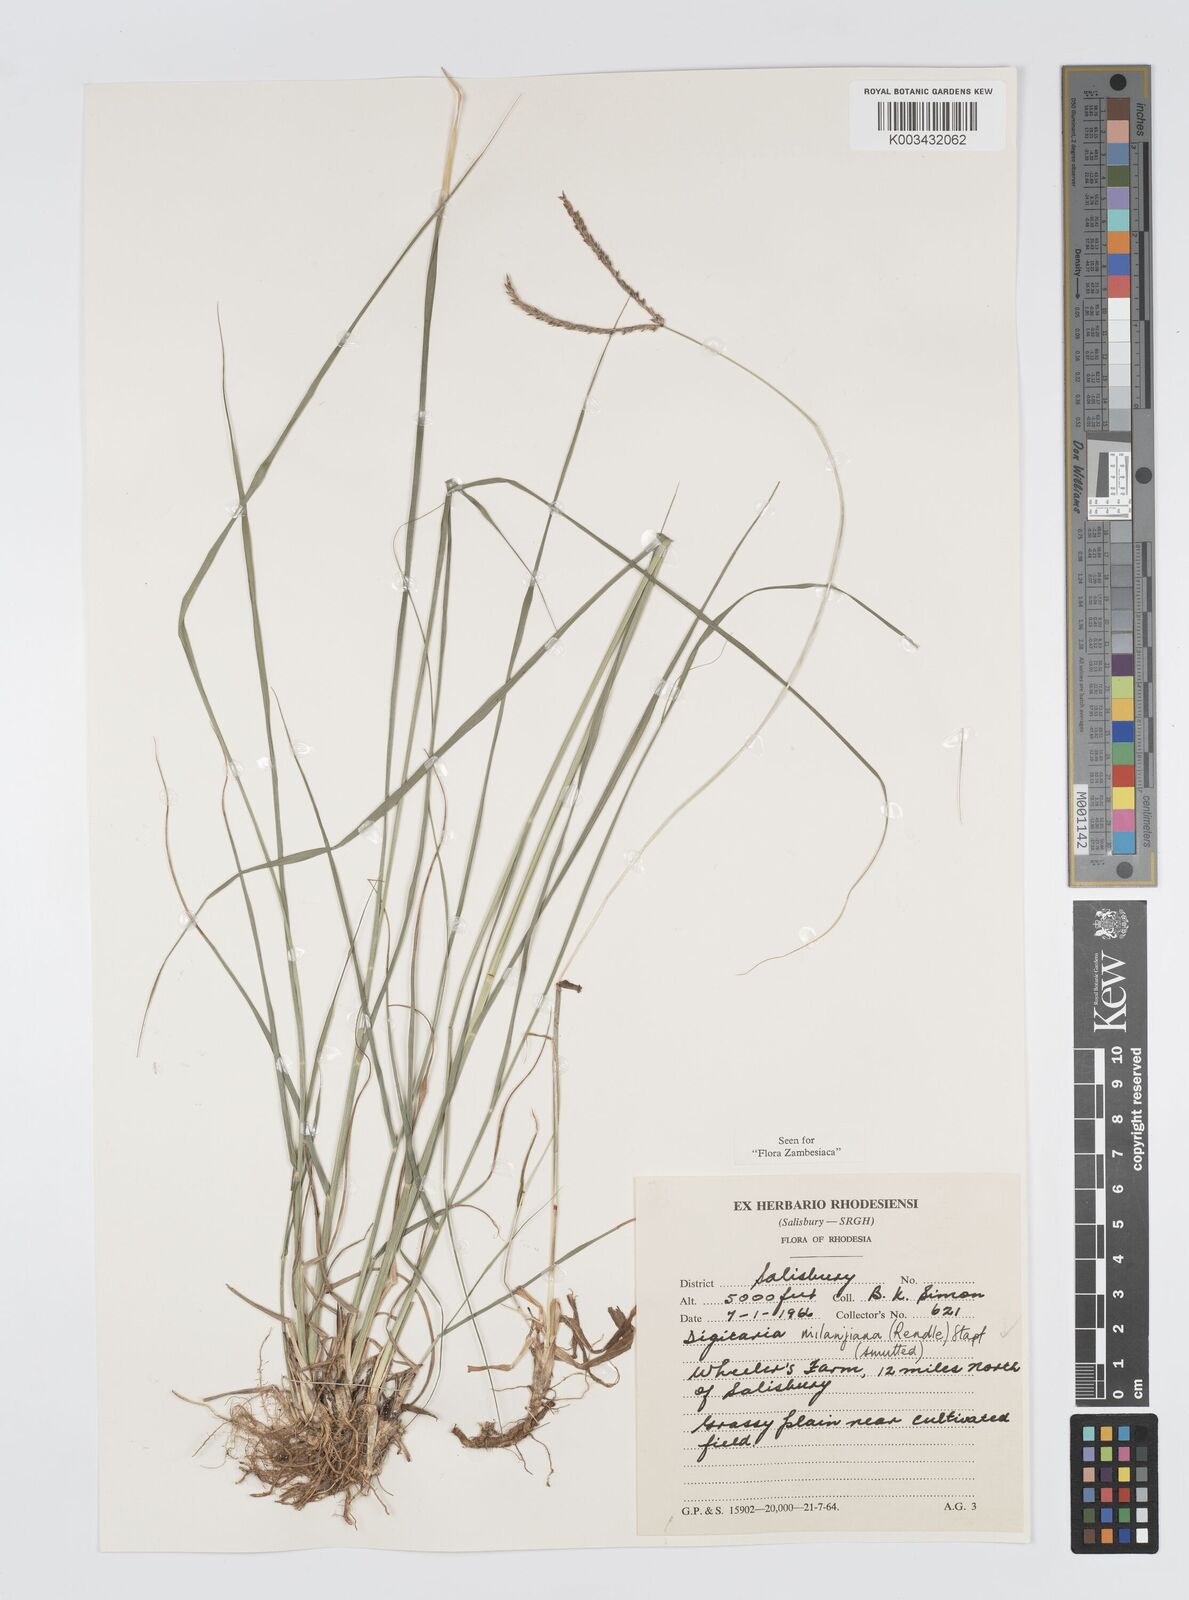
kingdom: Plantae
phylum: Tracheophyta
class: Liliopsida
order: Poales
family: Poaceae
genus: Digitaria
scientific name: Digitaria milanjiana
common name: Madagascar crabgrass
